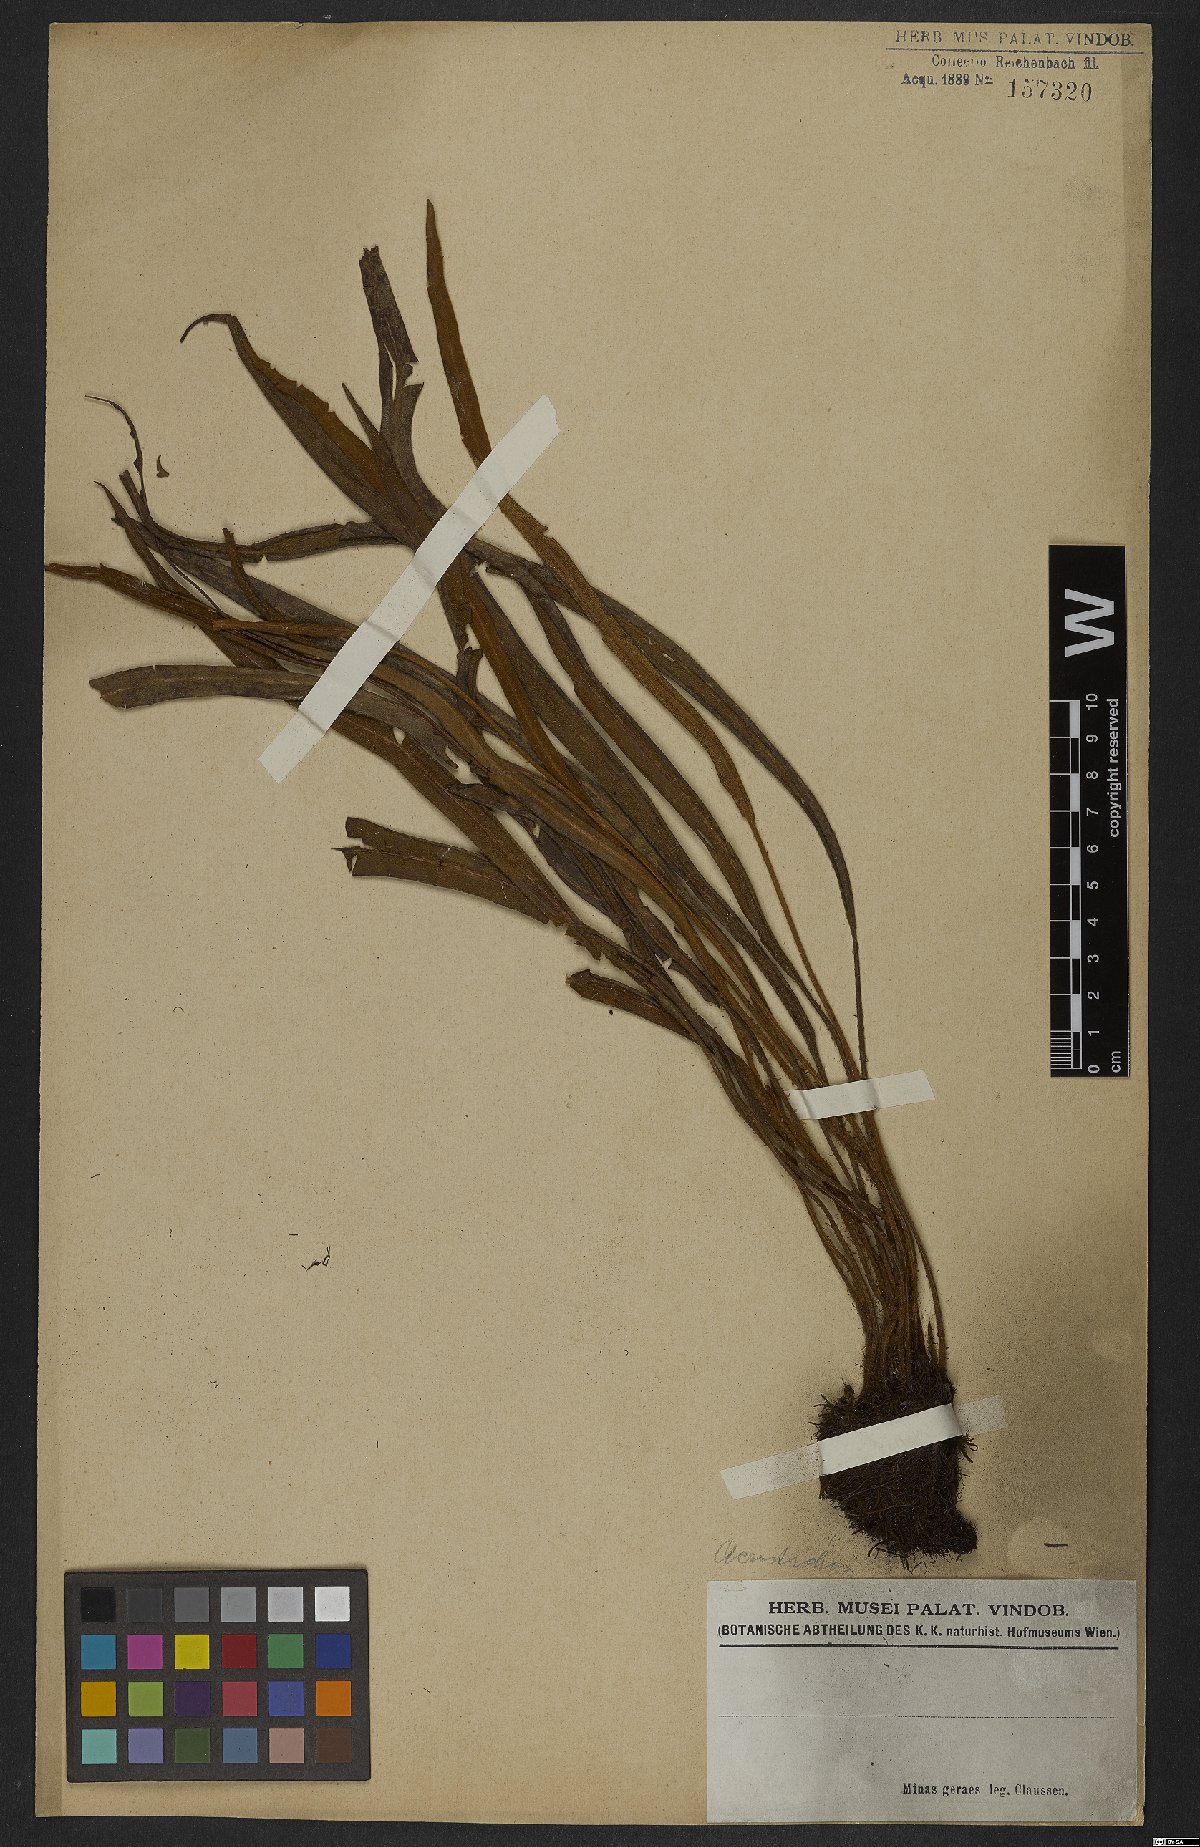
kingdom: Plantae
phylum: Tracheophyta
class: Polypodiopsida
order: Polypodiales
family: Dryopteridaceae
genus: Elaphoglossum
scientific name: Elaphoglossum
